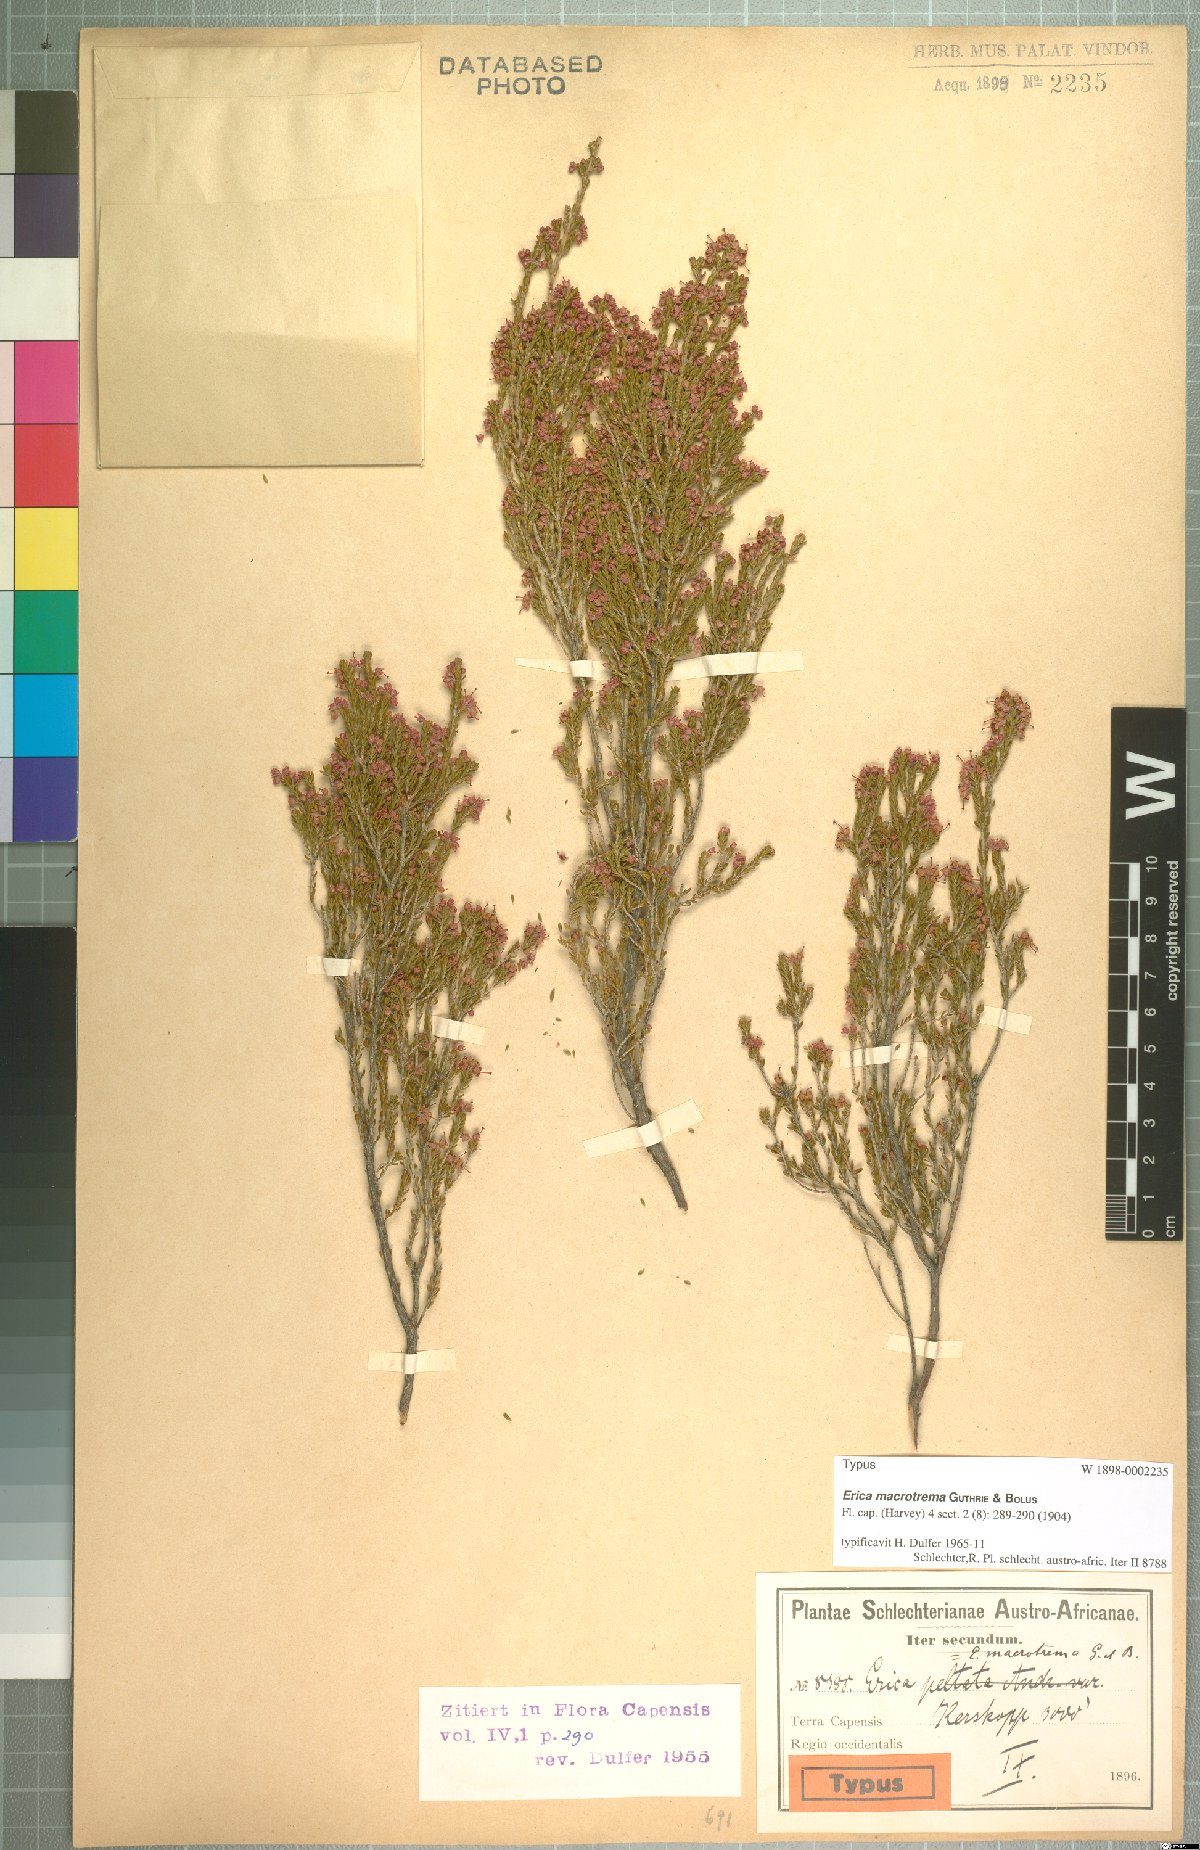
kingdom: Plantae
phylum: Tracheophyta
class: Magnoliopsida
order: Ericales
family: Ericaceae
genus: Erica
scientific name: Erica macrotrema
